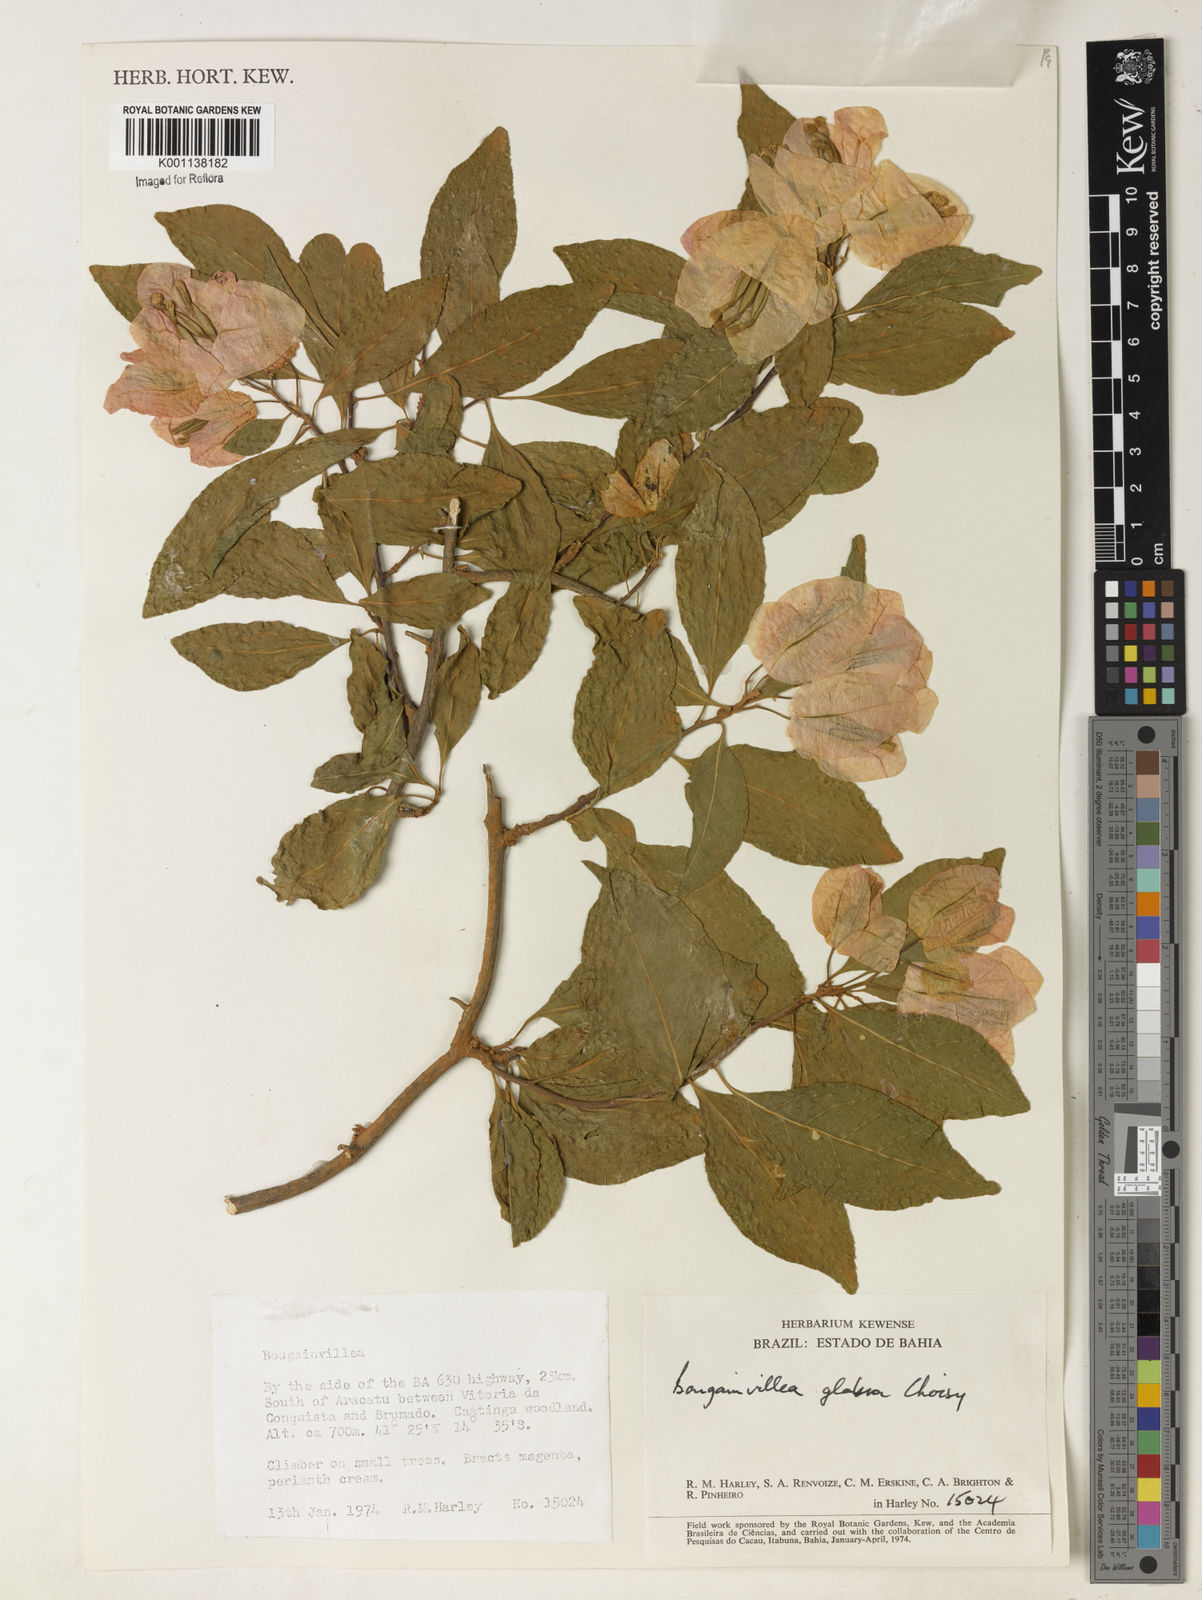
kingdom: Plantae
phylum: Tracheophyta
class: Magnoliopsida
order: Caryophyllales
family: Nyctaginaceae
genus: Bougainvillea
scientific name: Bougainvillea glabra
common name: Paperflower
